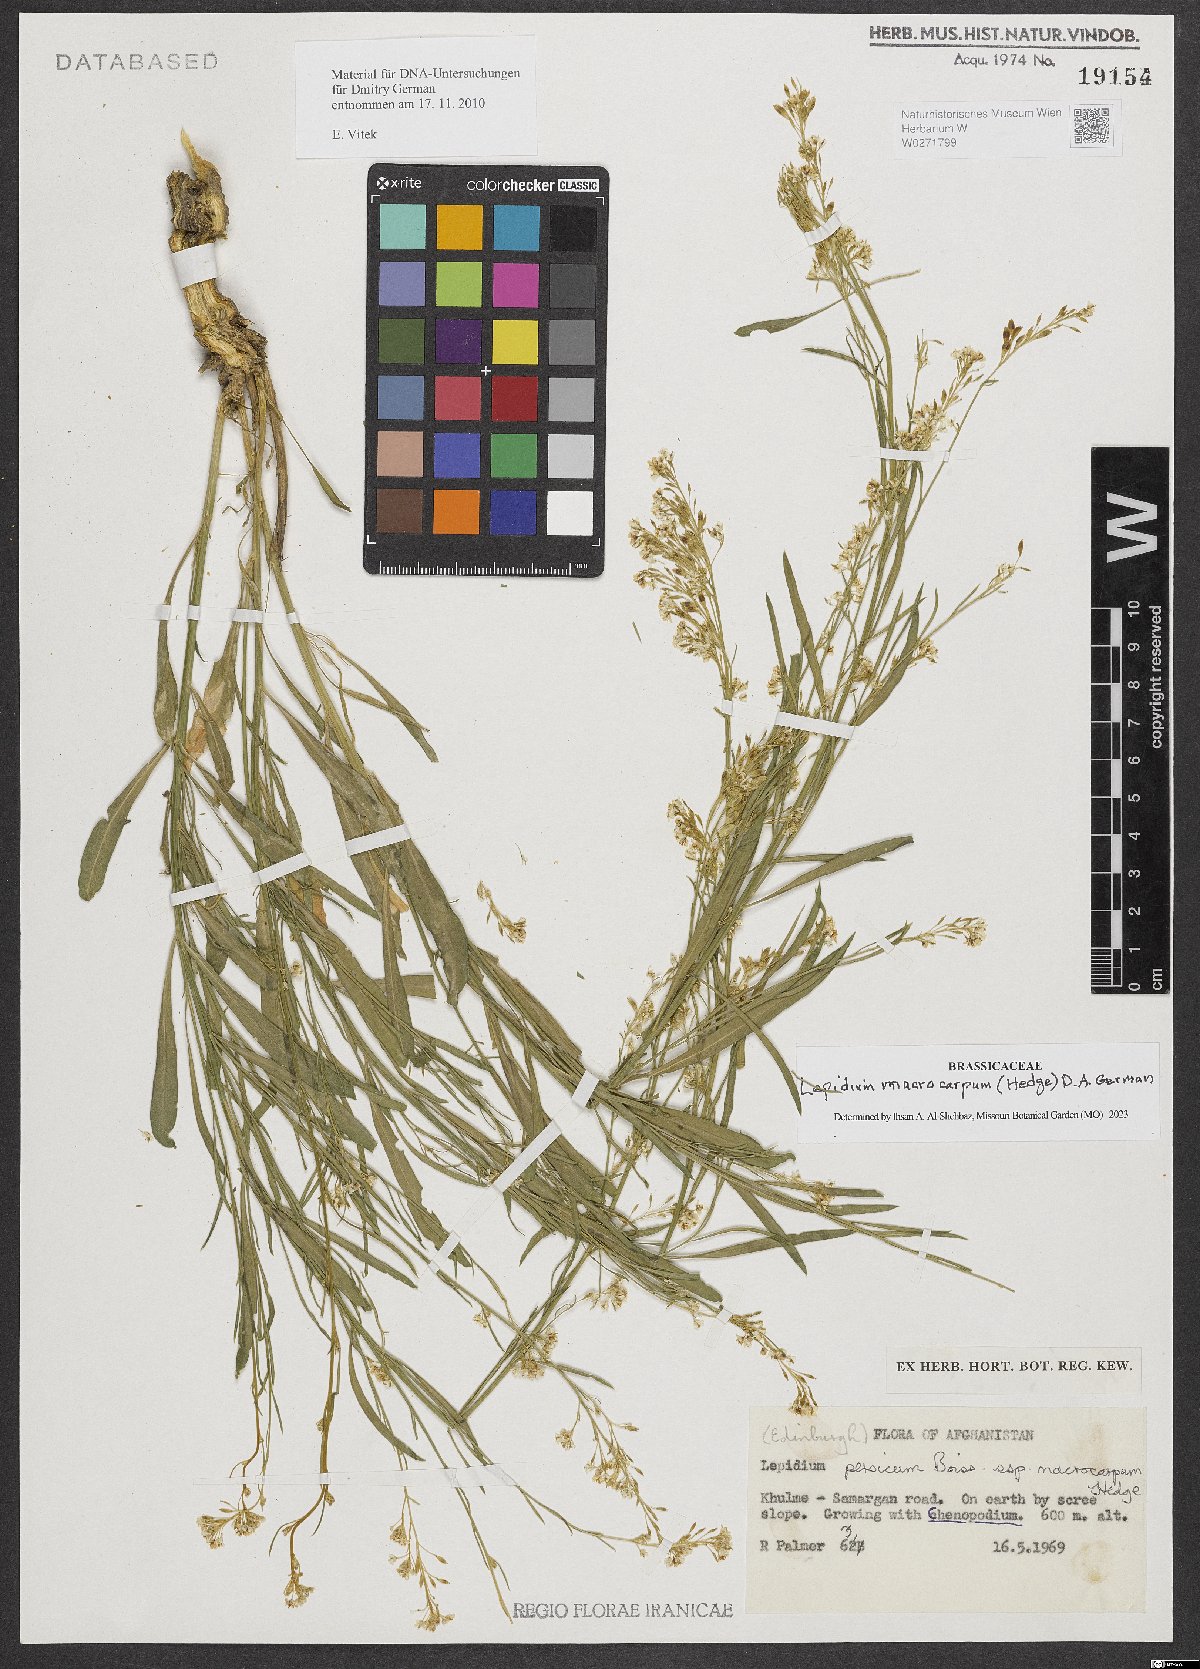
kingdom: Plantae
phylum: Tracheophyta
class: Magnoliopsida
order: Brassicales
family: Brassicaceae
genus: Lepidium
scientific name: Lepidium macrocarpum
